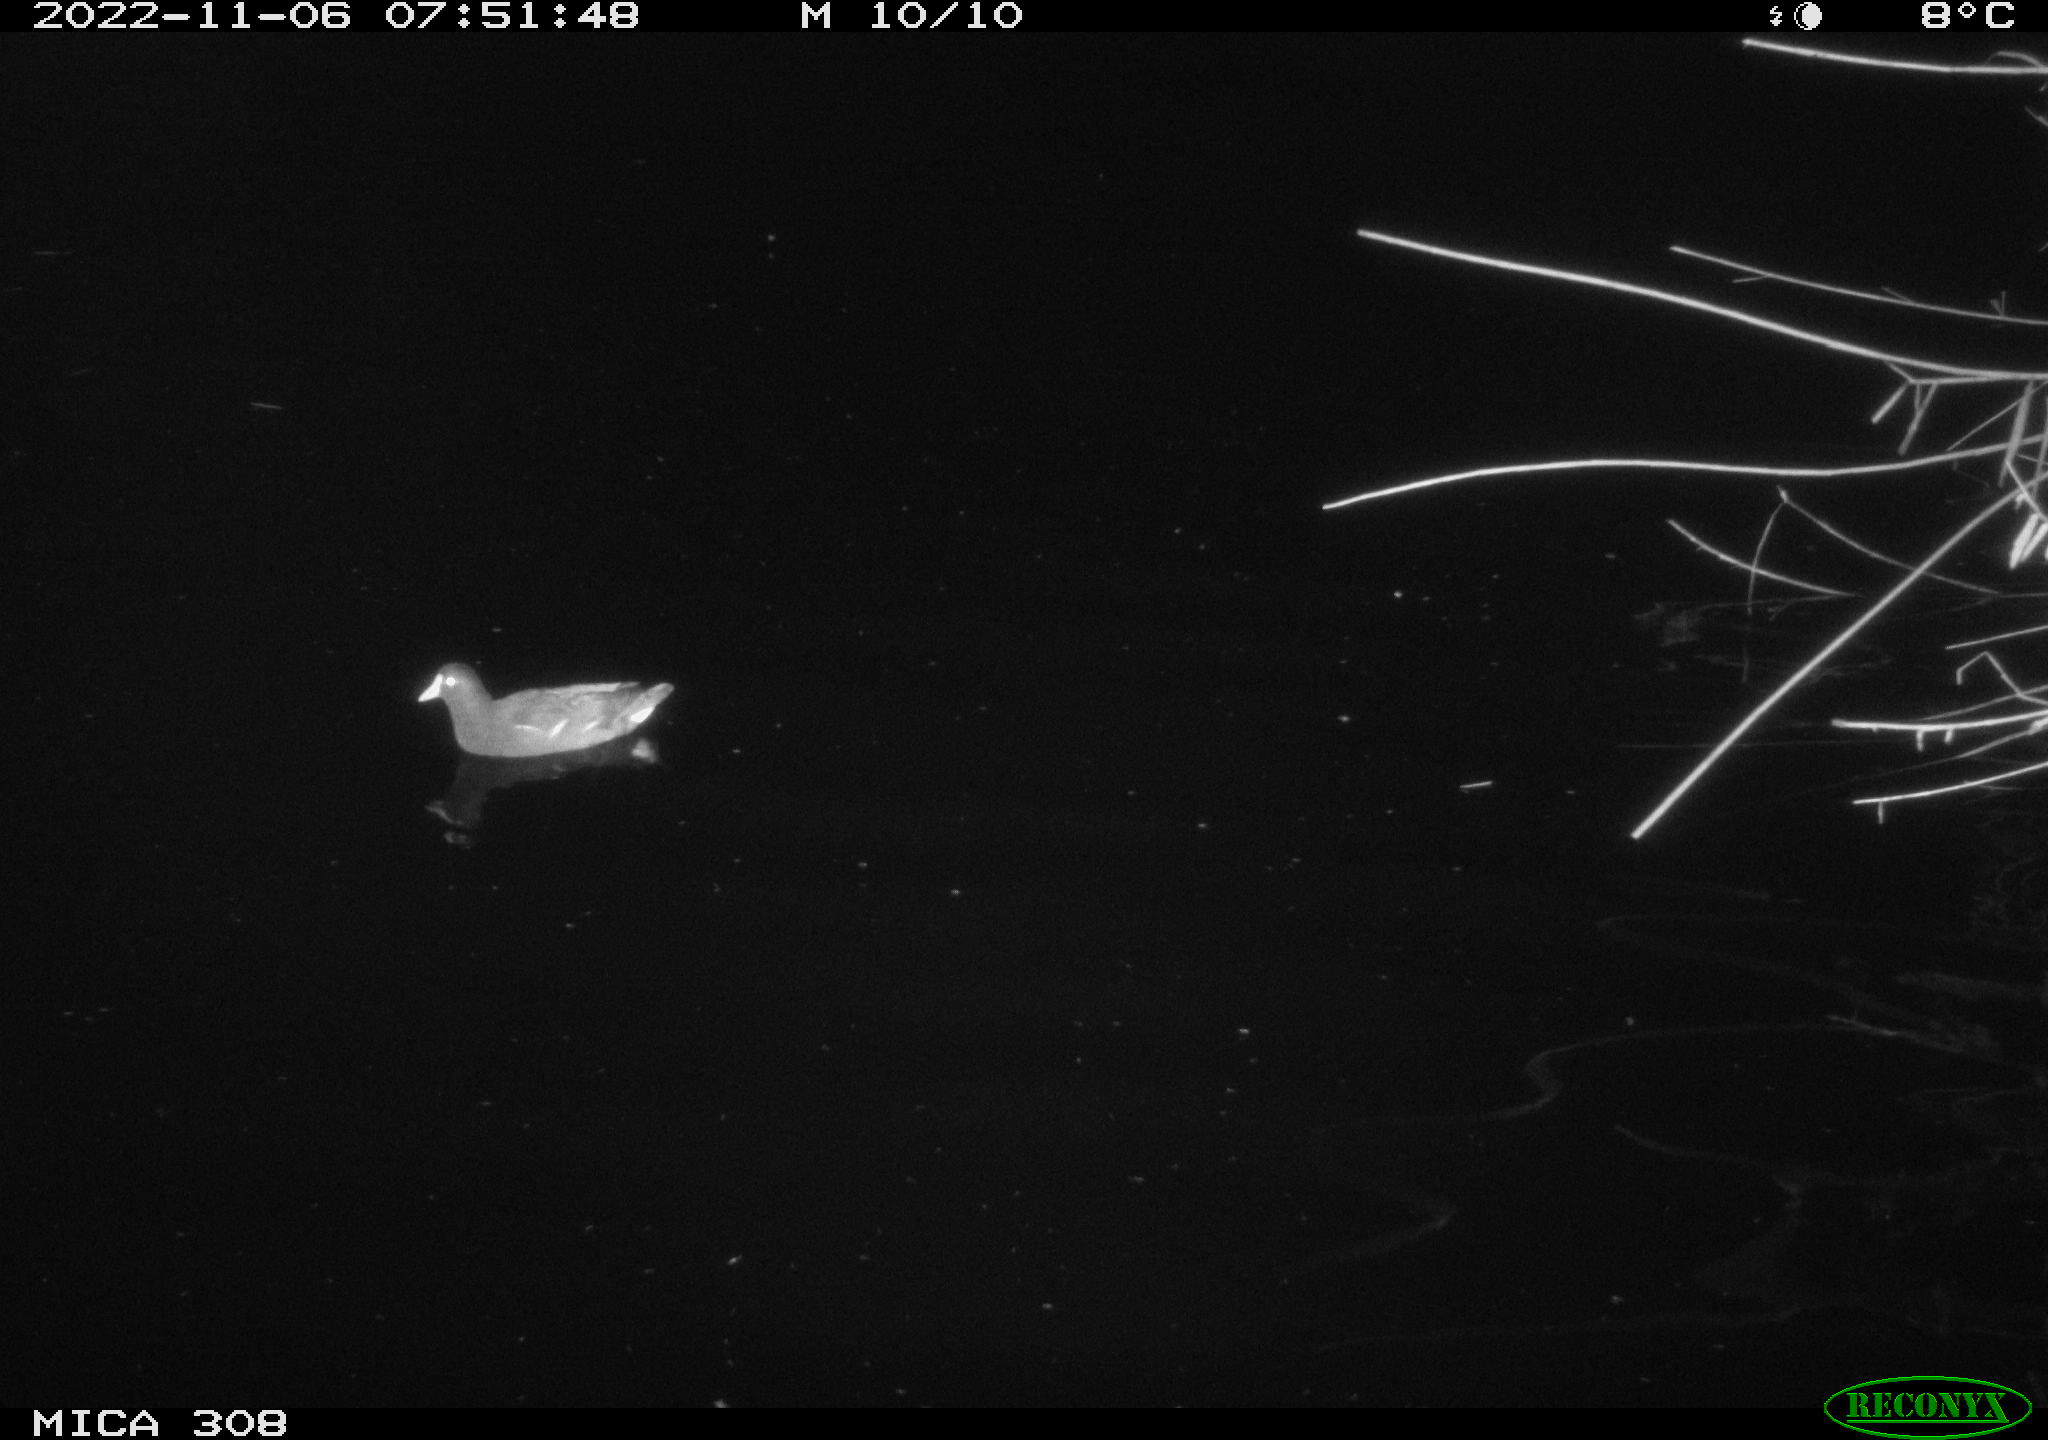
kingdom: Animalia
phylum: Chordata
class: Aves
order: Gruiformes
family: Rallidae
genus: Gallinula
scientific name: Gallinula chloropus
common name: Common moorhen
